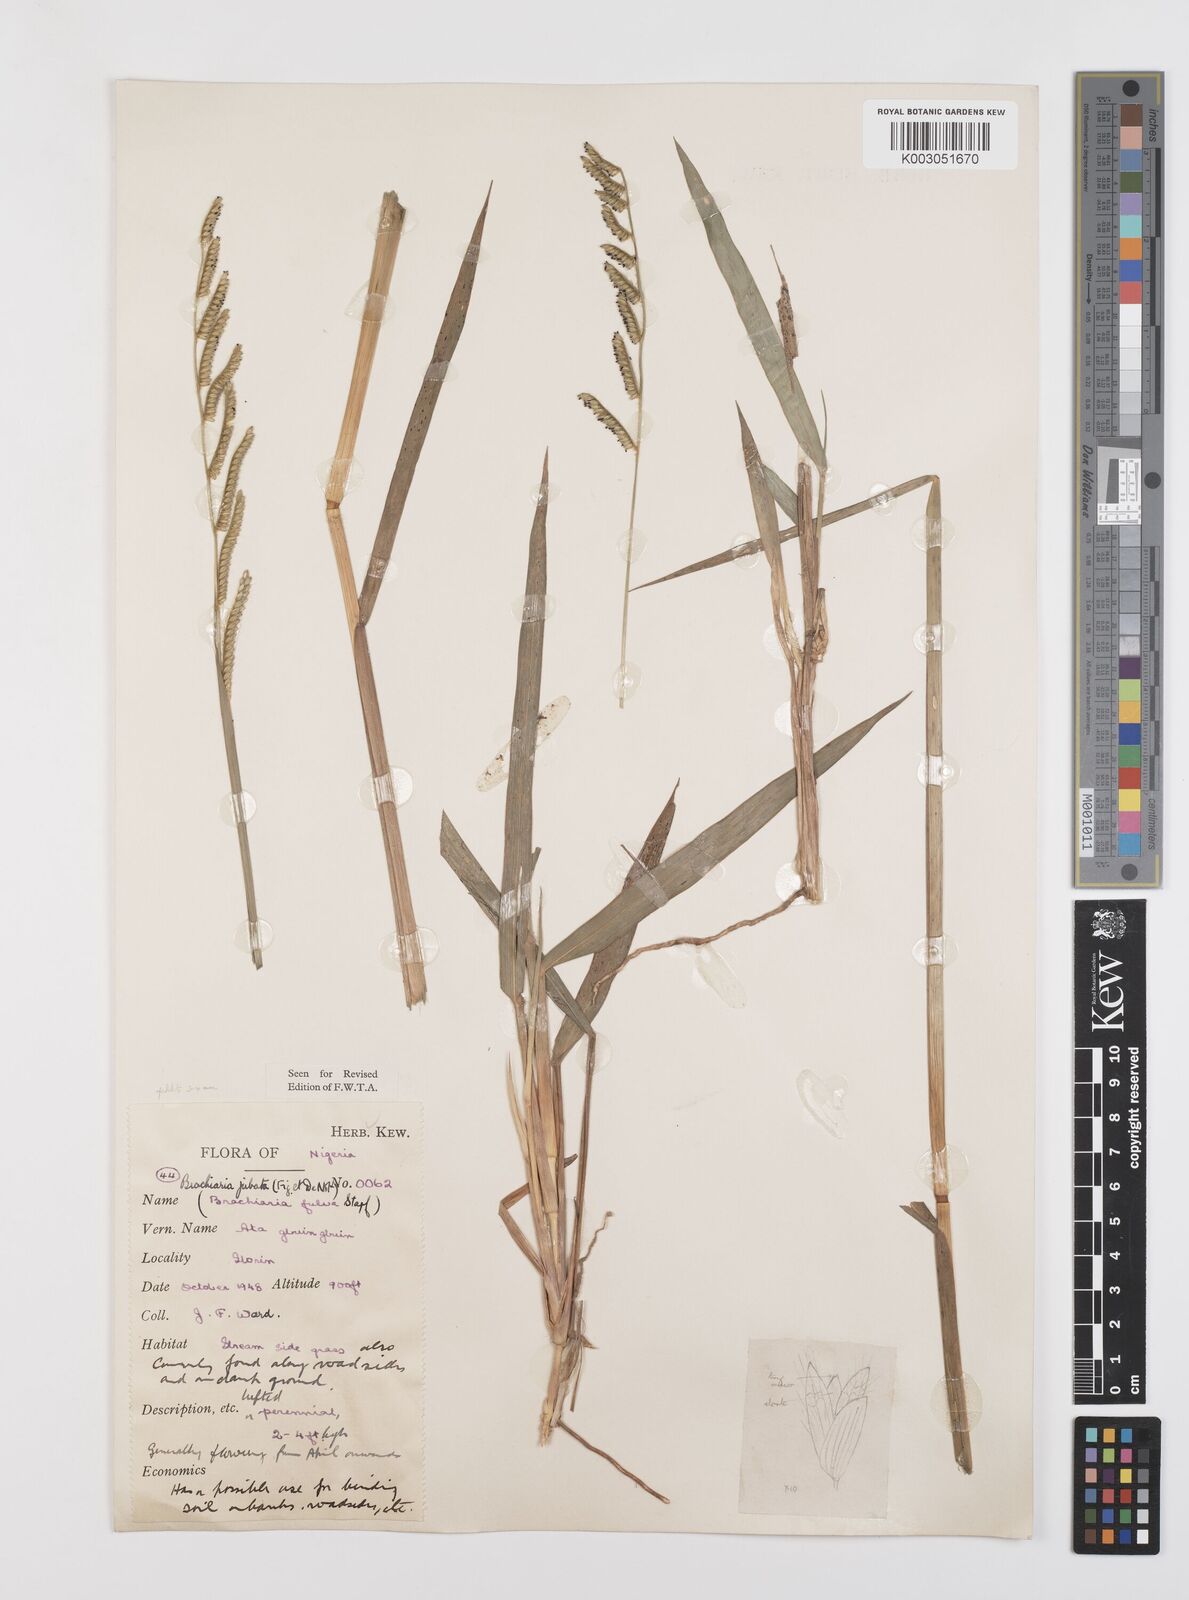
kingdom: Plantae
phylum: Tracheophyta
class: Liliopsida
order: Poales
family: Poaceae
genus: Urochloa
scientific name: Urochloa jubata
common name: Buffalograss
